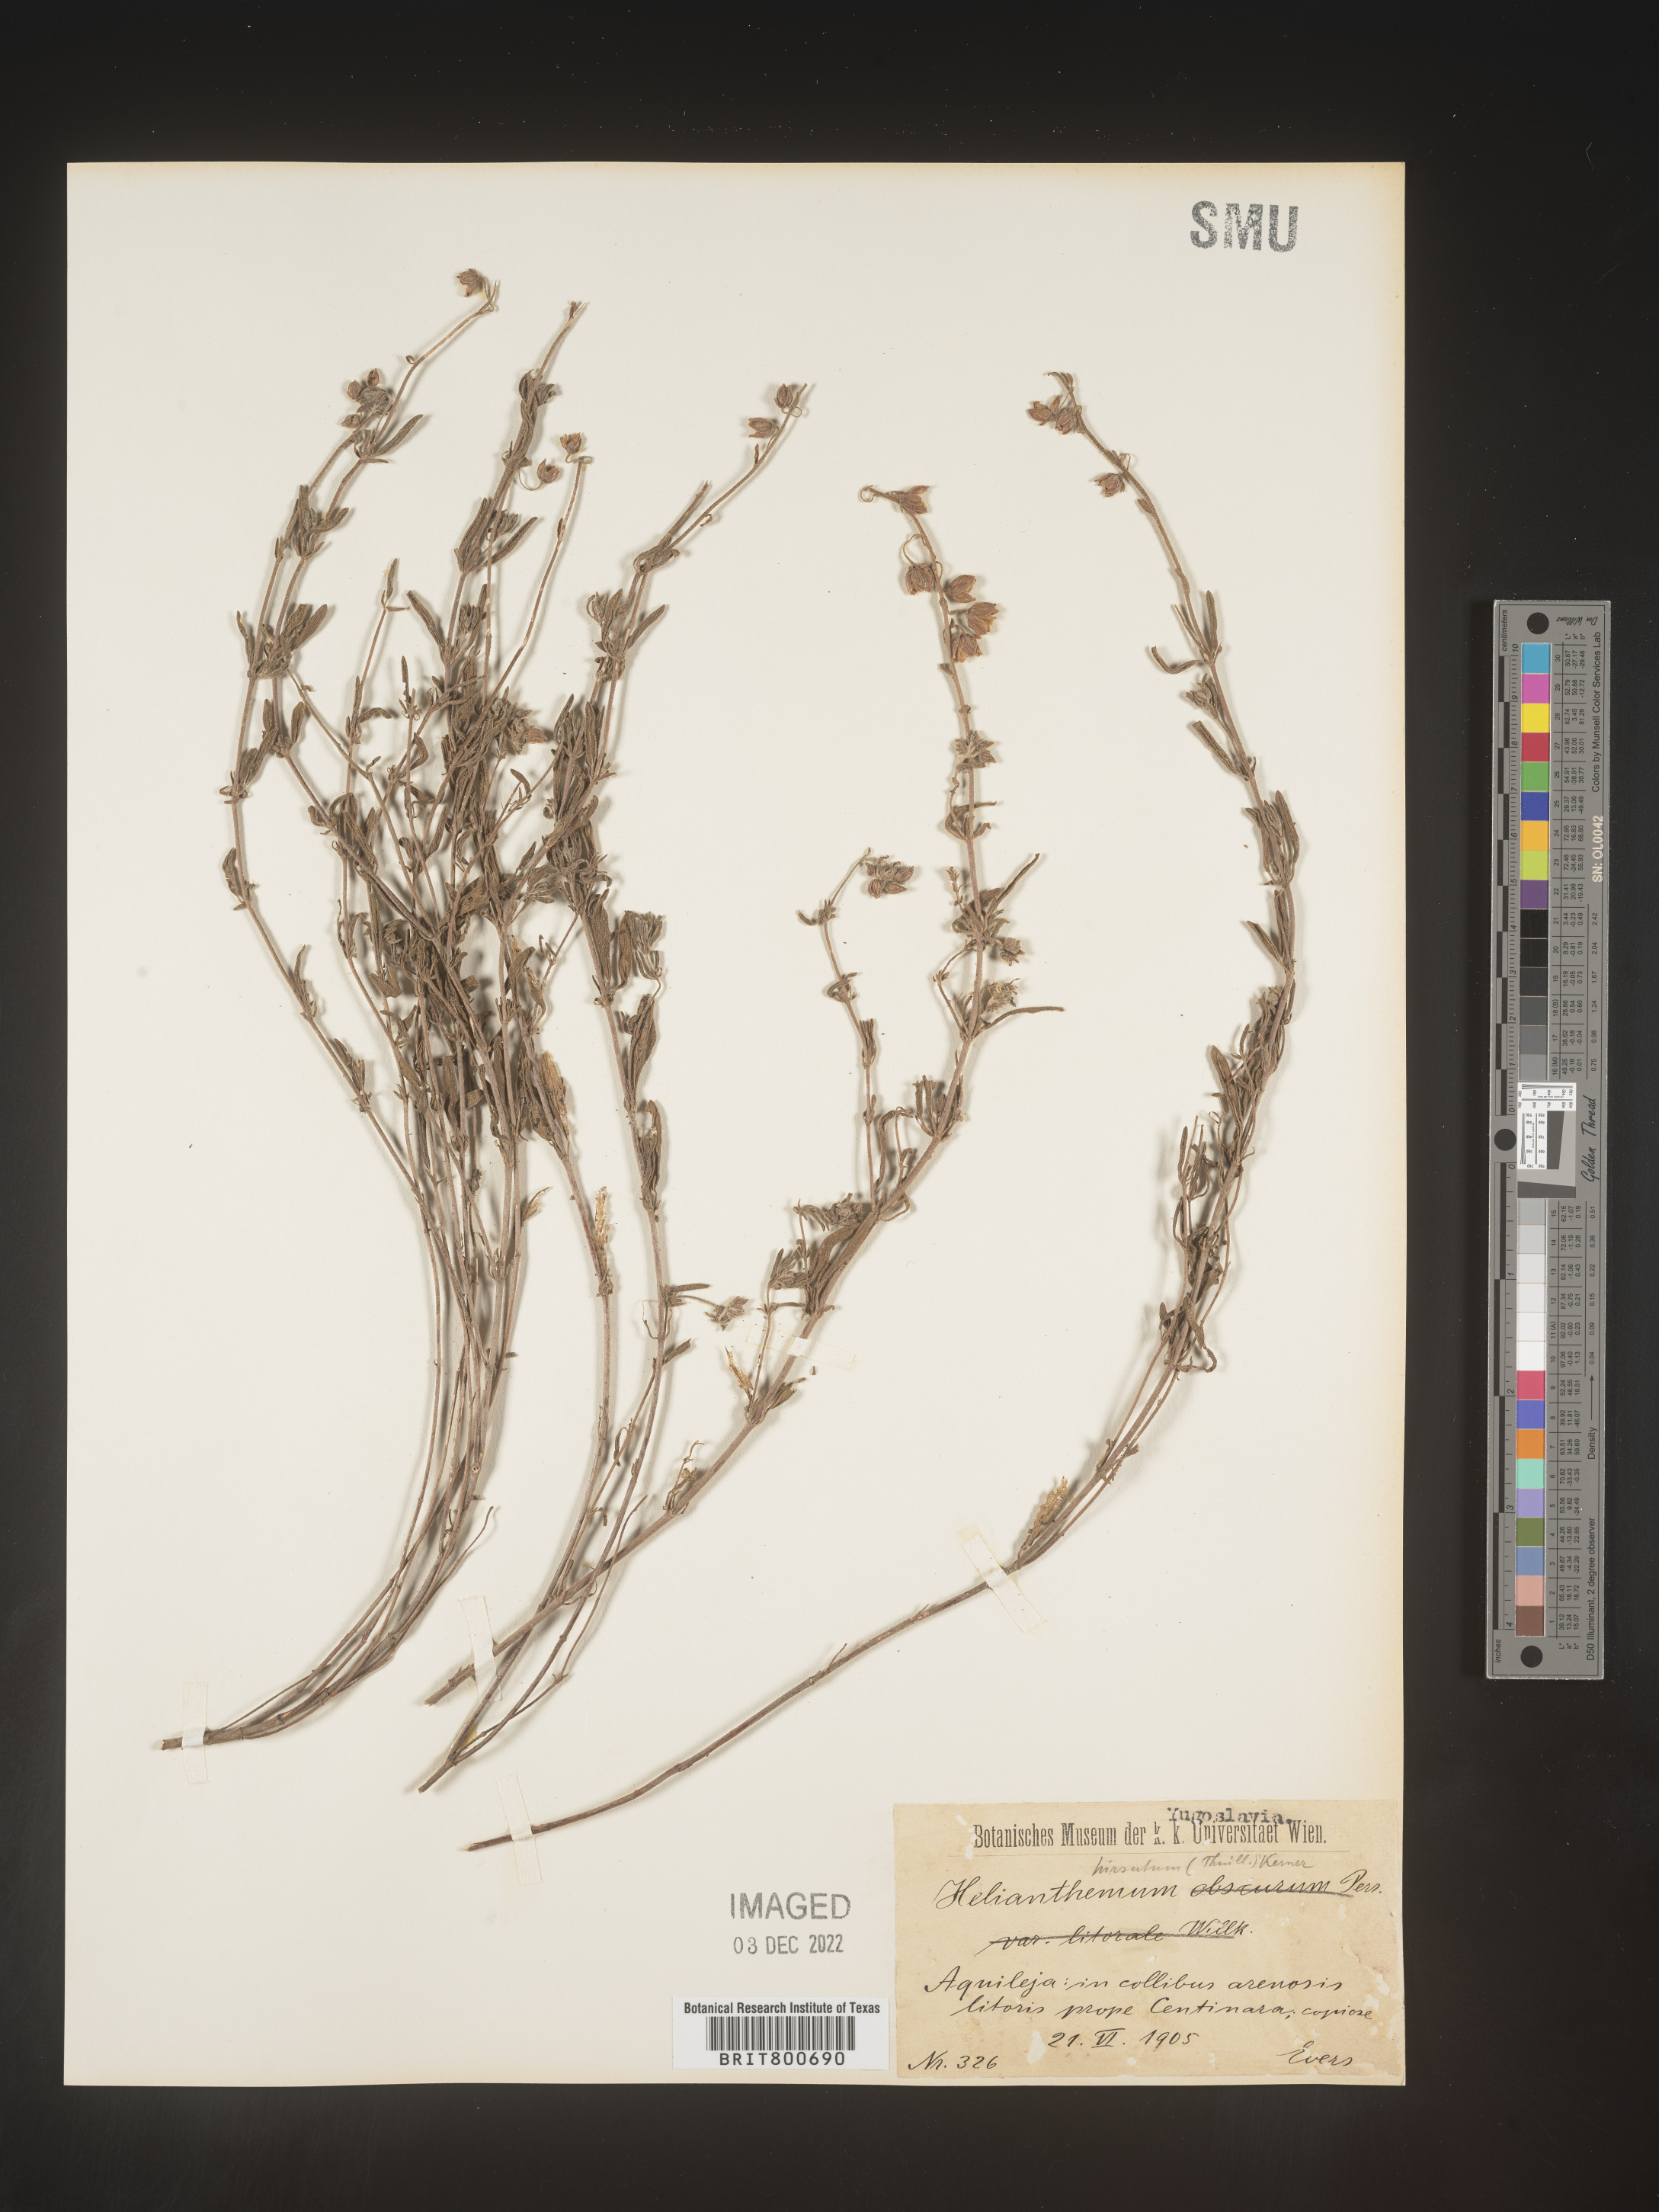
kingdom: Plantae
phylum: Tracheophyta
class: Magnoliopsida
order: Malvales
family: Cistaceae
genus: Helianthemum
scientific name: Helianthemum
